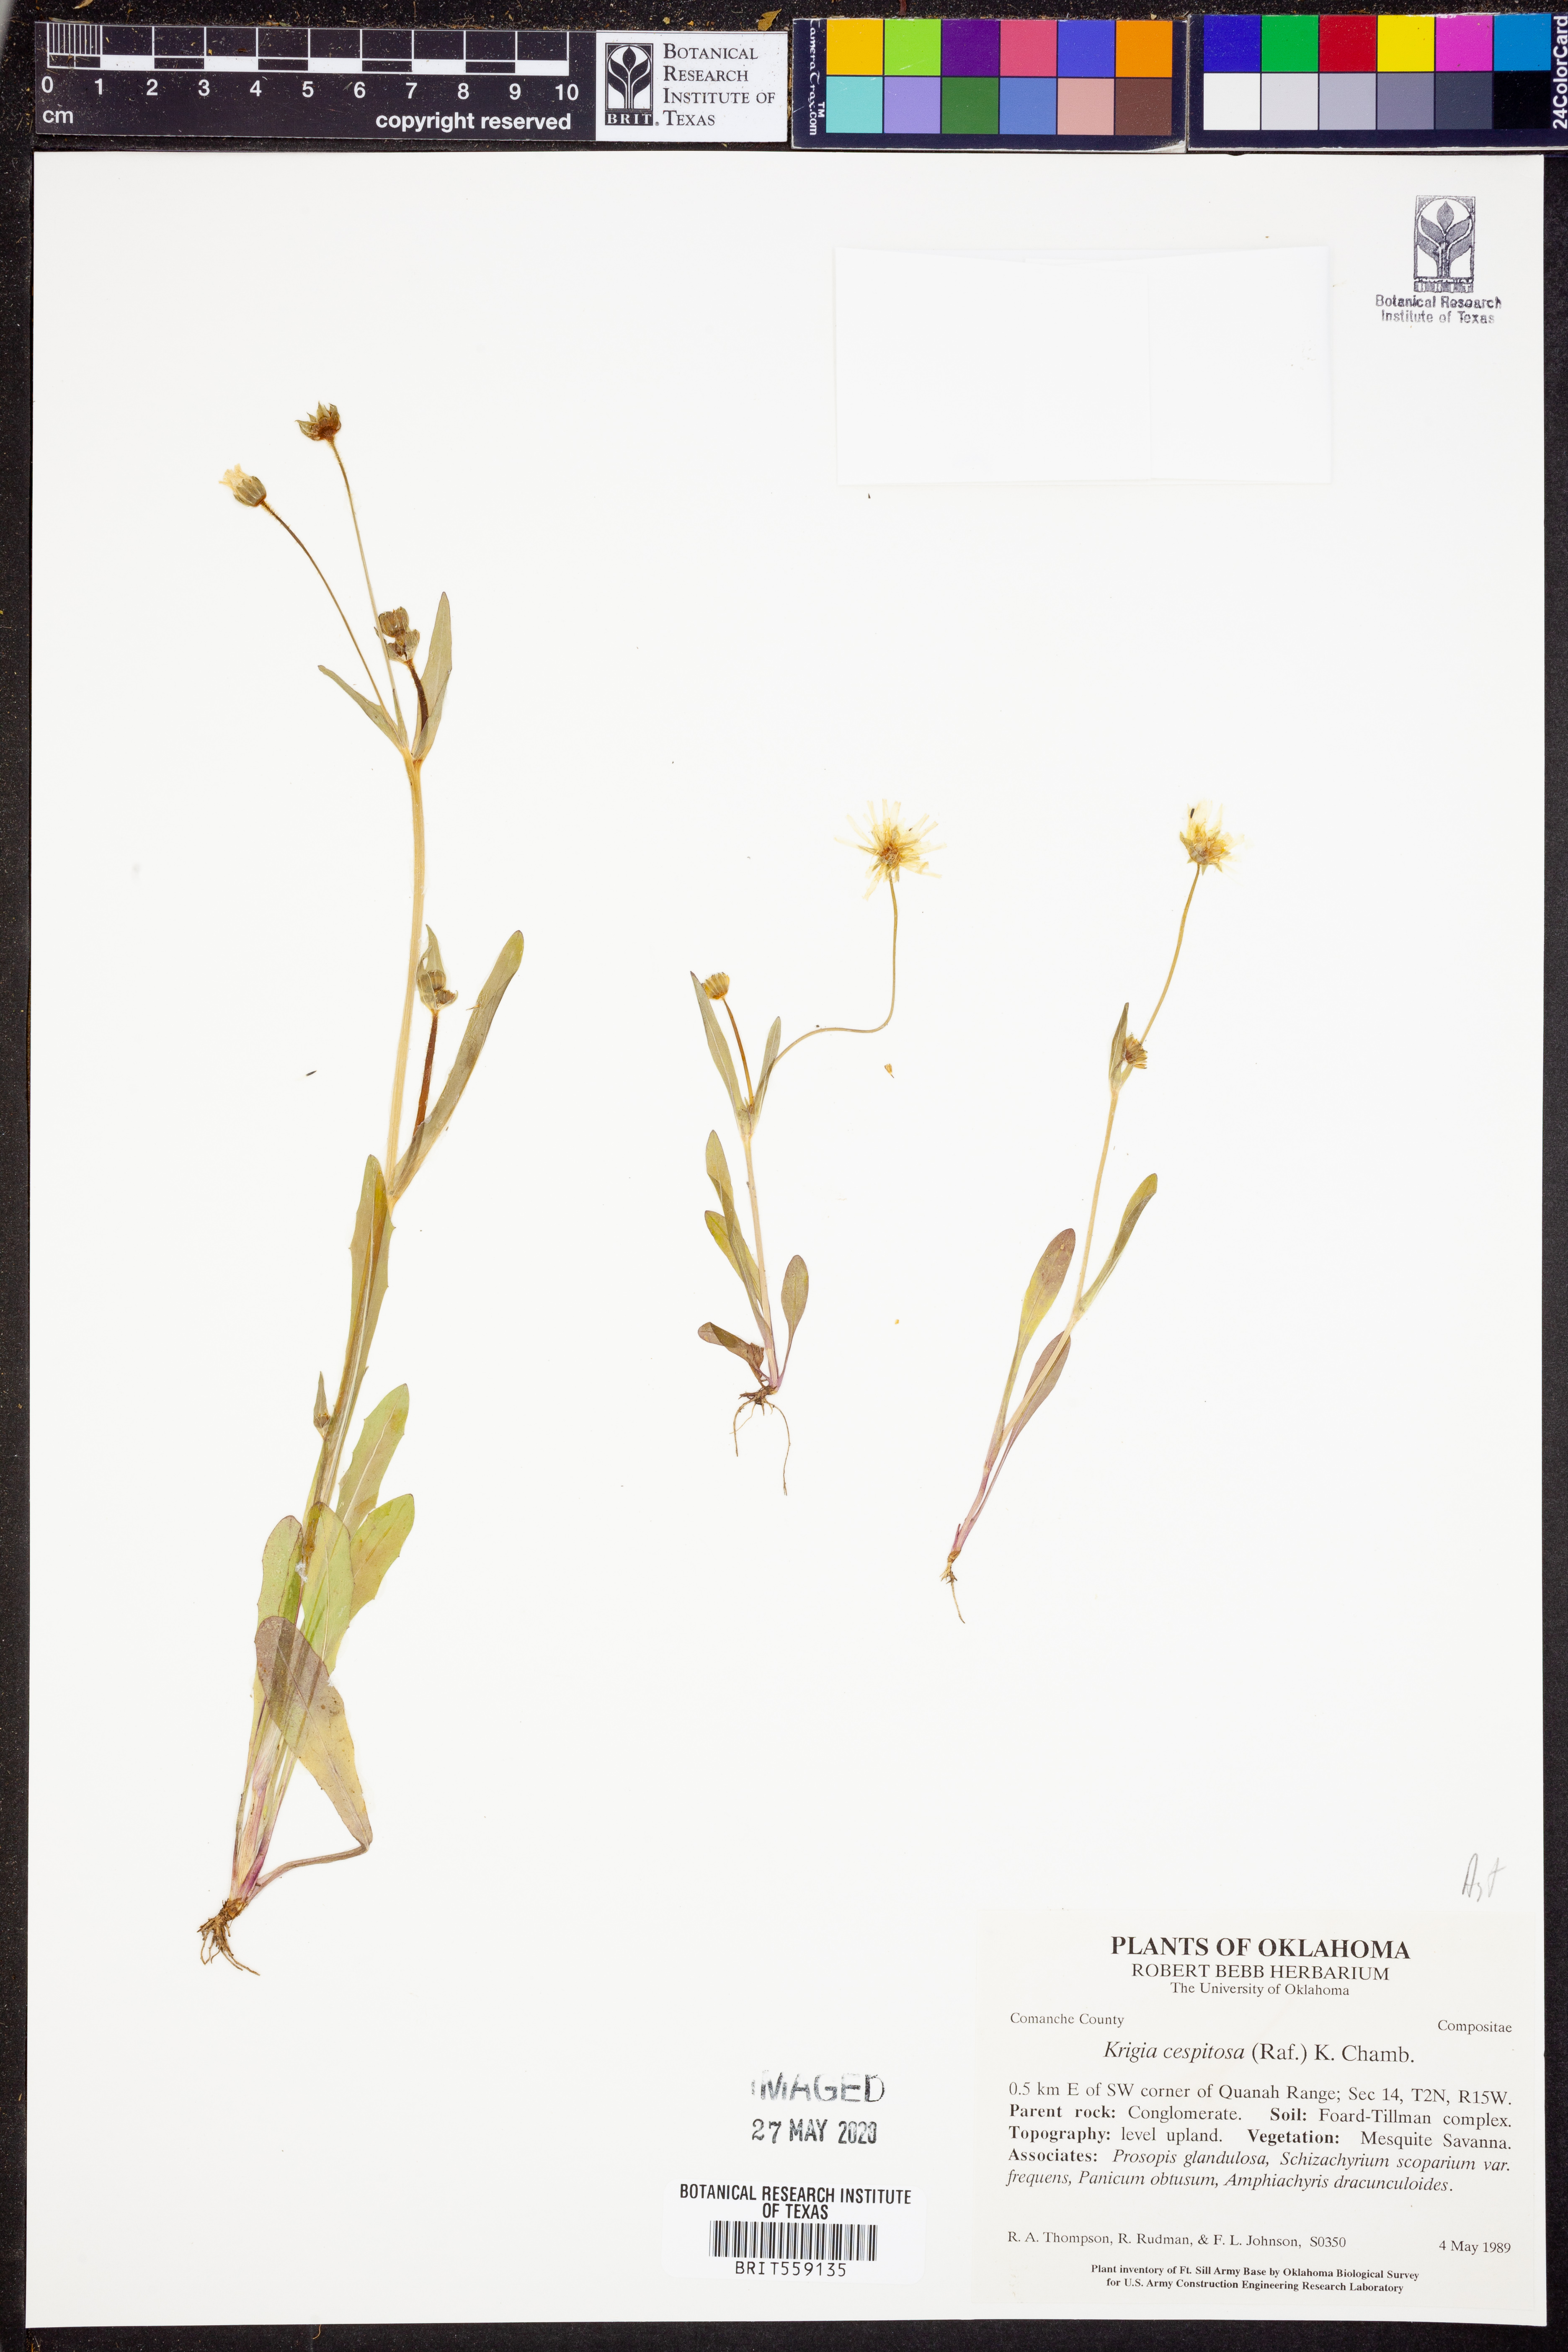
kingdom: Plantae
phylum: Tracheophyta
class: Magnoliopsida
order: Asterales
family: Asteraceae
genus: Krigia
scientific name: Krigia cespitosa
